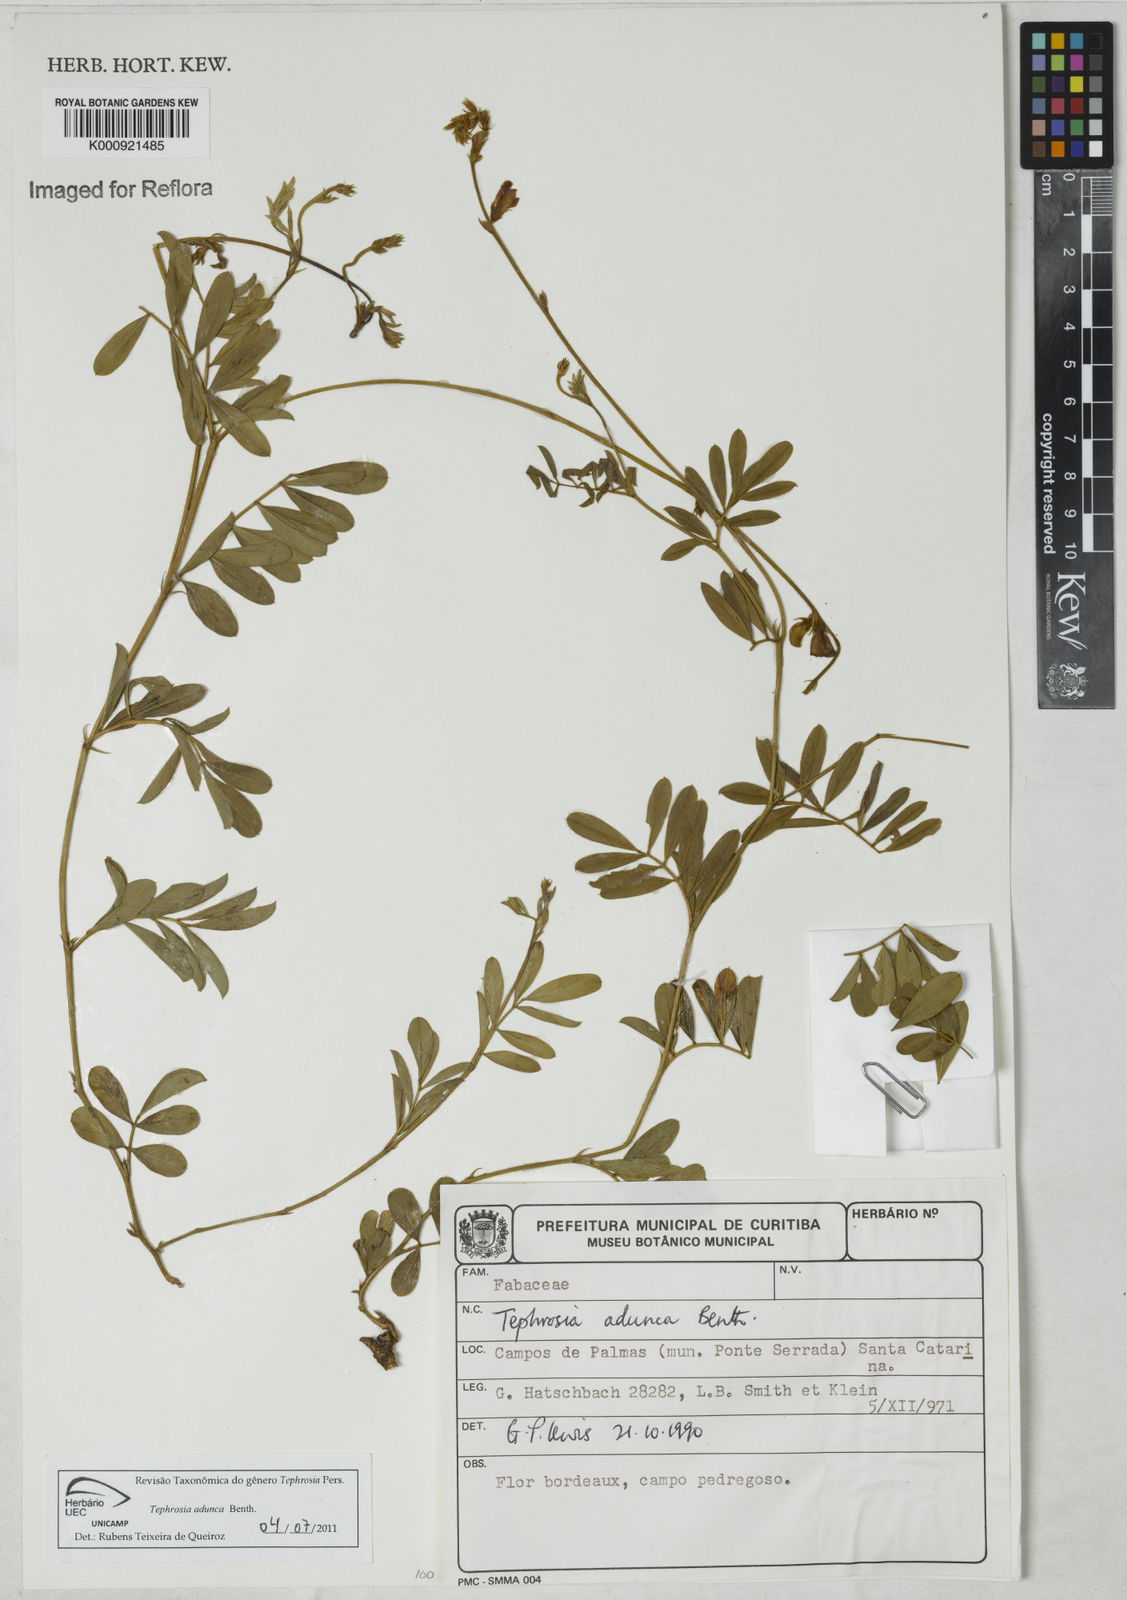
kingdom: Plantae
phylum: Tracheophyta
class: Magnoliopsida
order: Fabales
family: Fabaceae
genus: Tephrosia
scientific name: Tephrosia adunca
